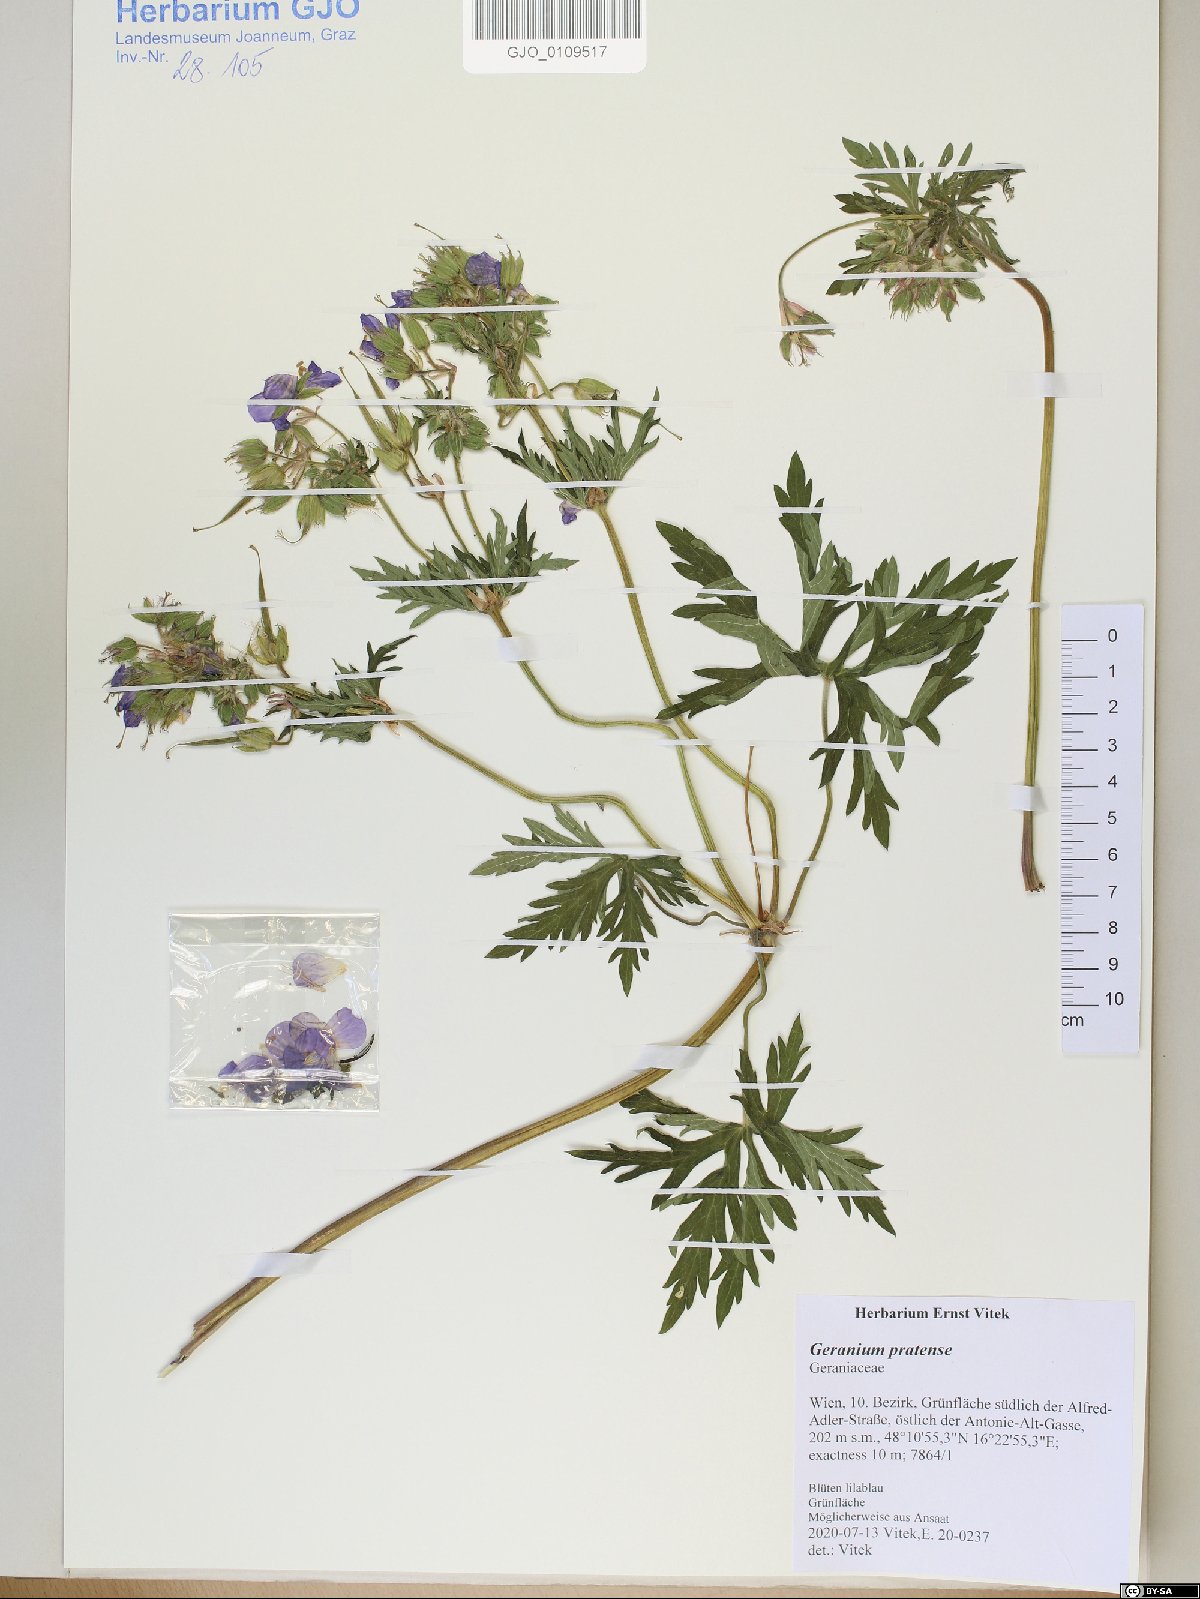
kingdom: Plantae
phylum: Tracheophyta
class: Magnoliopsida
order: Geraniales
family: Geraniaceae
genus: Geranium
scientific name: Geranium pratense
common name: Meadow crane's-bill
